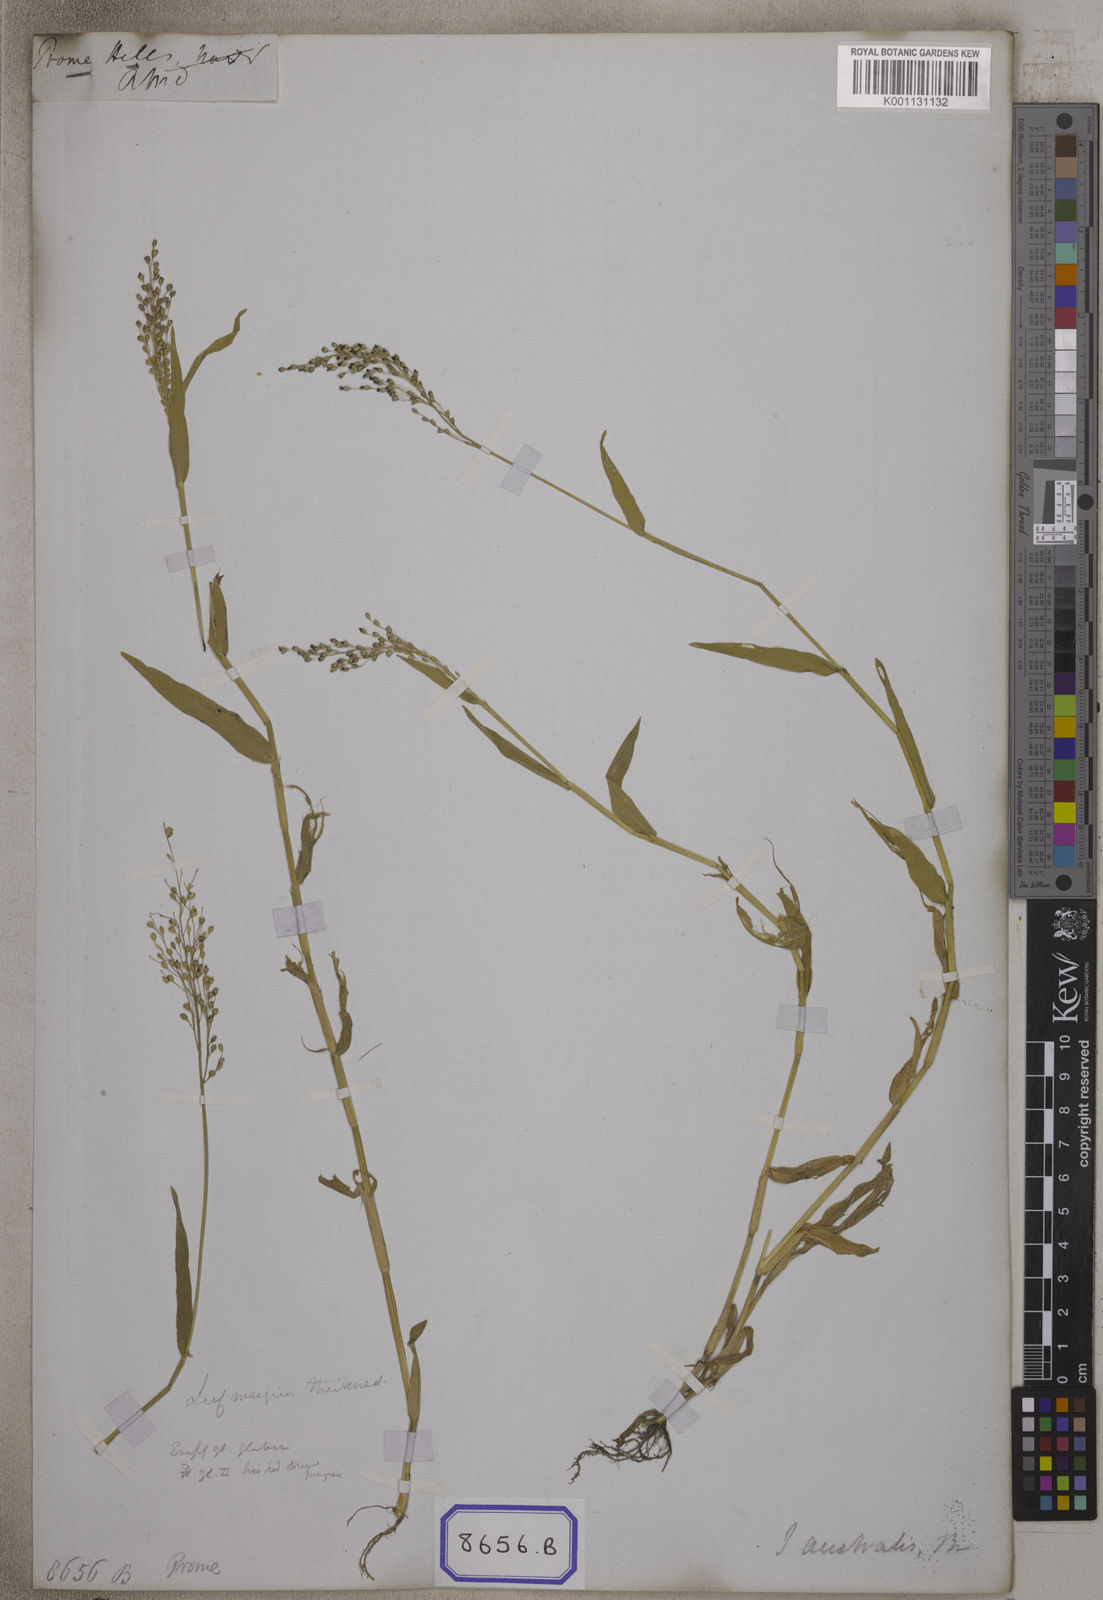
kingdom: Plantae
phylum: Tracheophyta
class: Liliopsida
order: Poales
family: Poaceae
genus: Isachne
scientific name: Isachne
